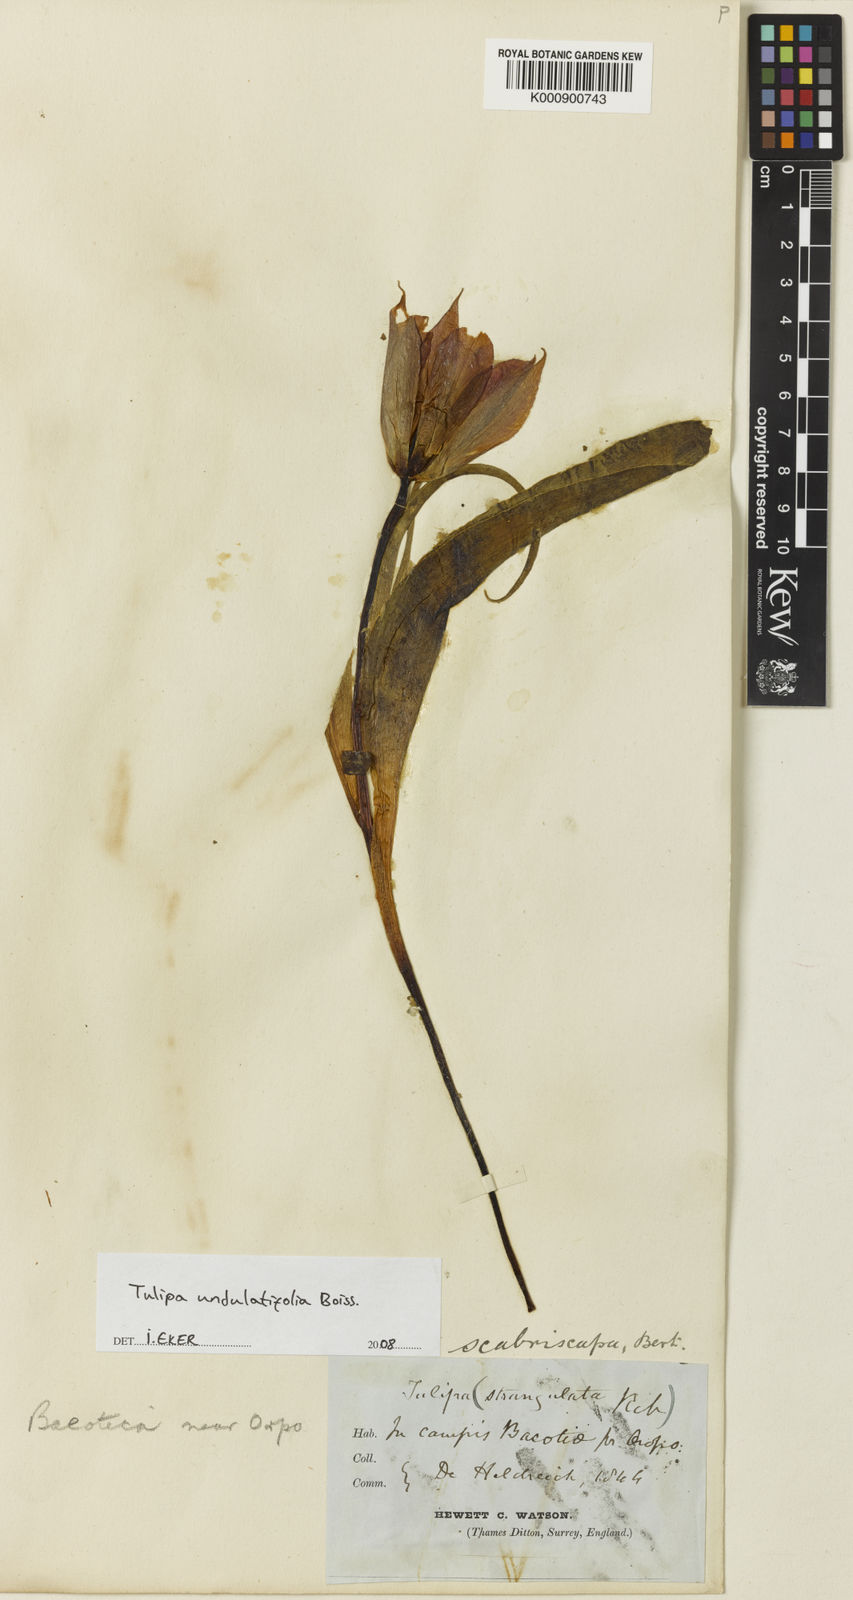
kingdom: Plantae
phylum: Tracheophyta
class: Liliopsida
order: Liliales
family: Liliaceae
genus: Tulipa
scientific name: Tulipa undulatifolia
